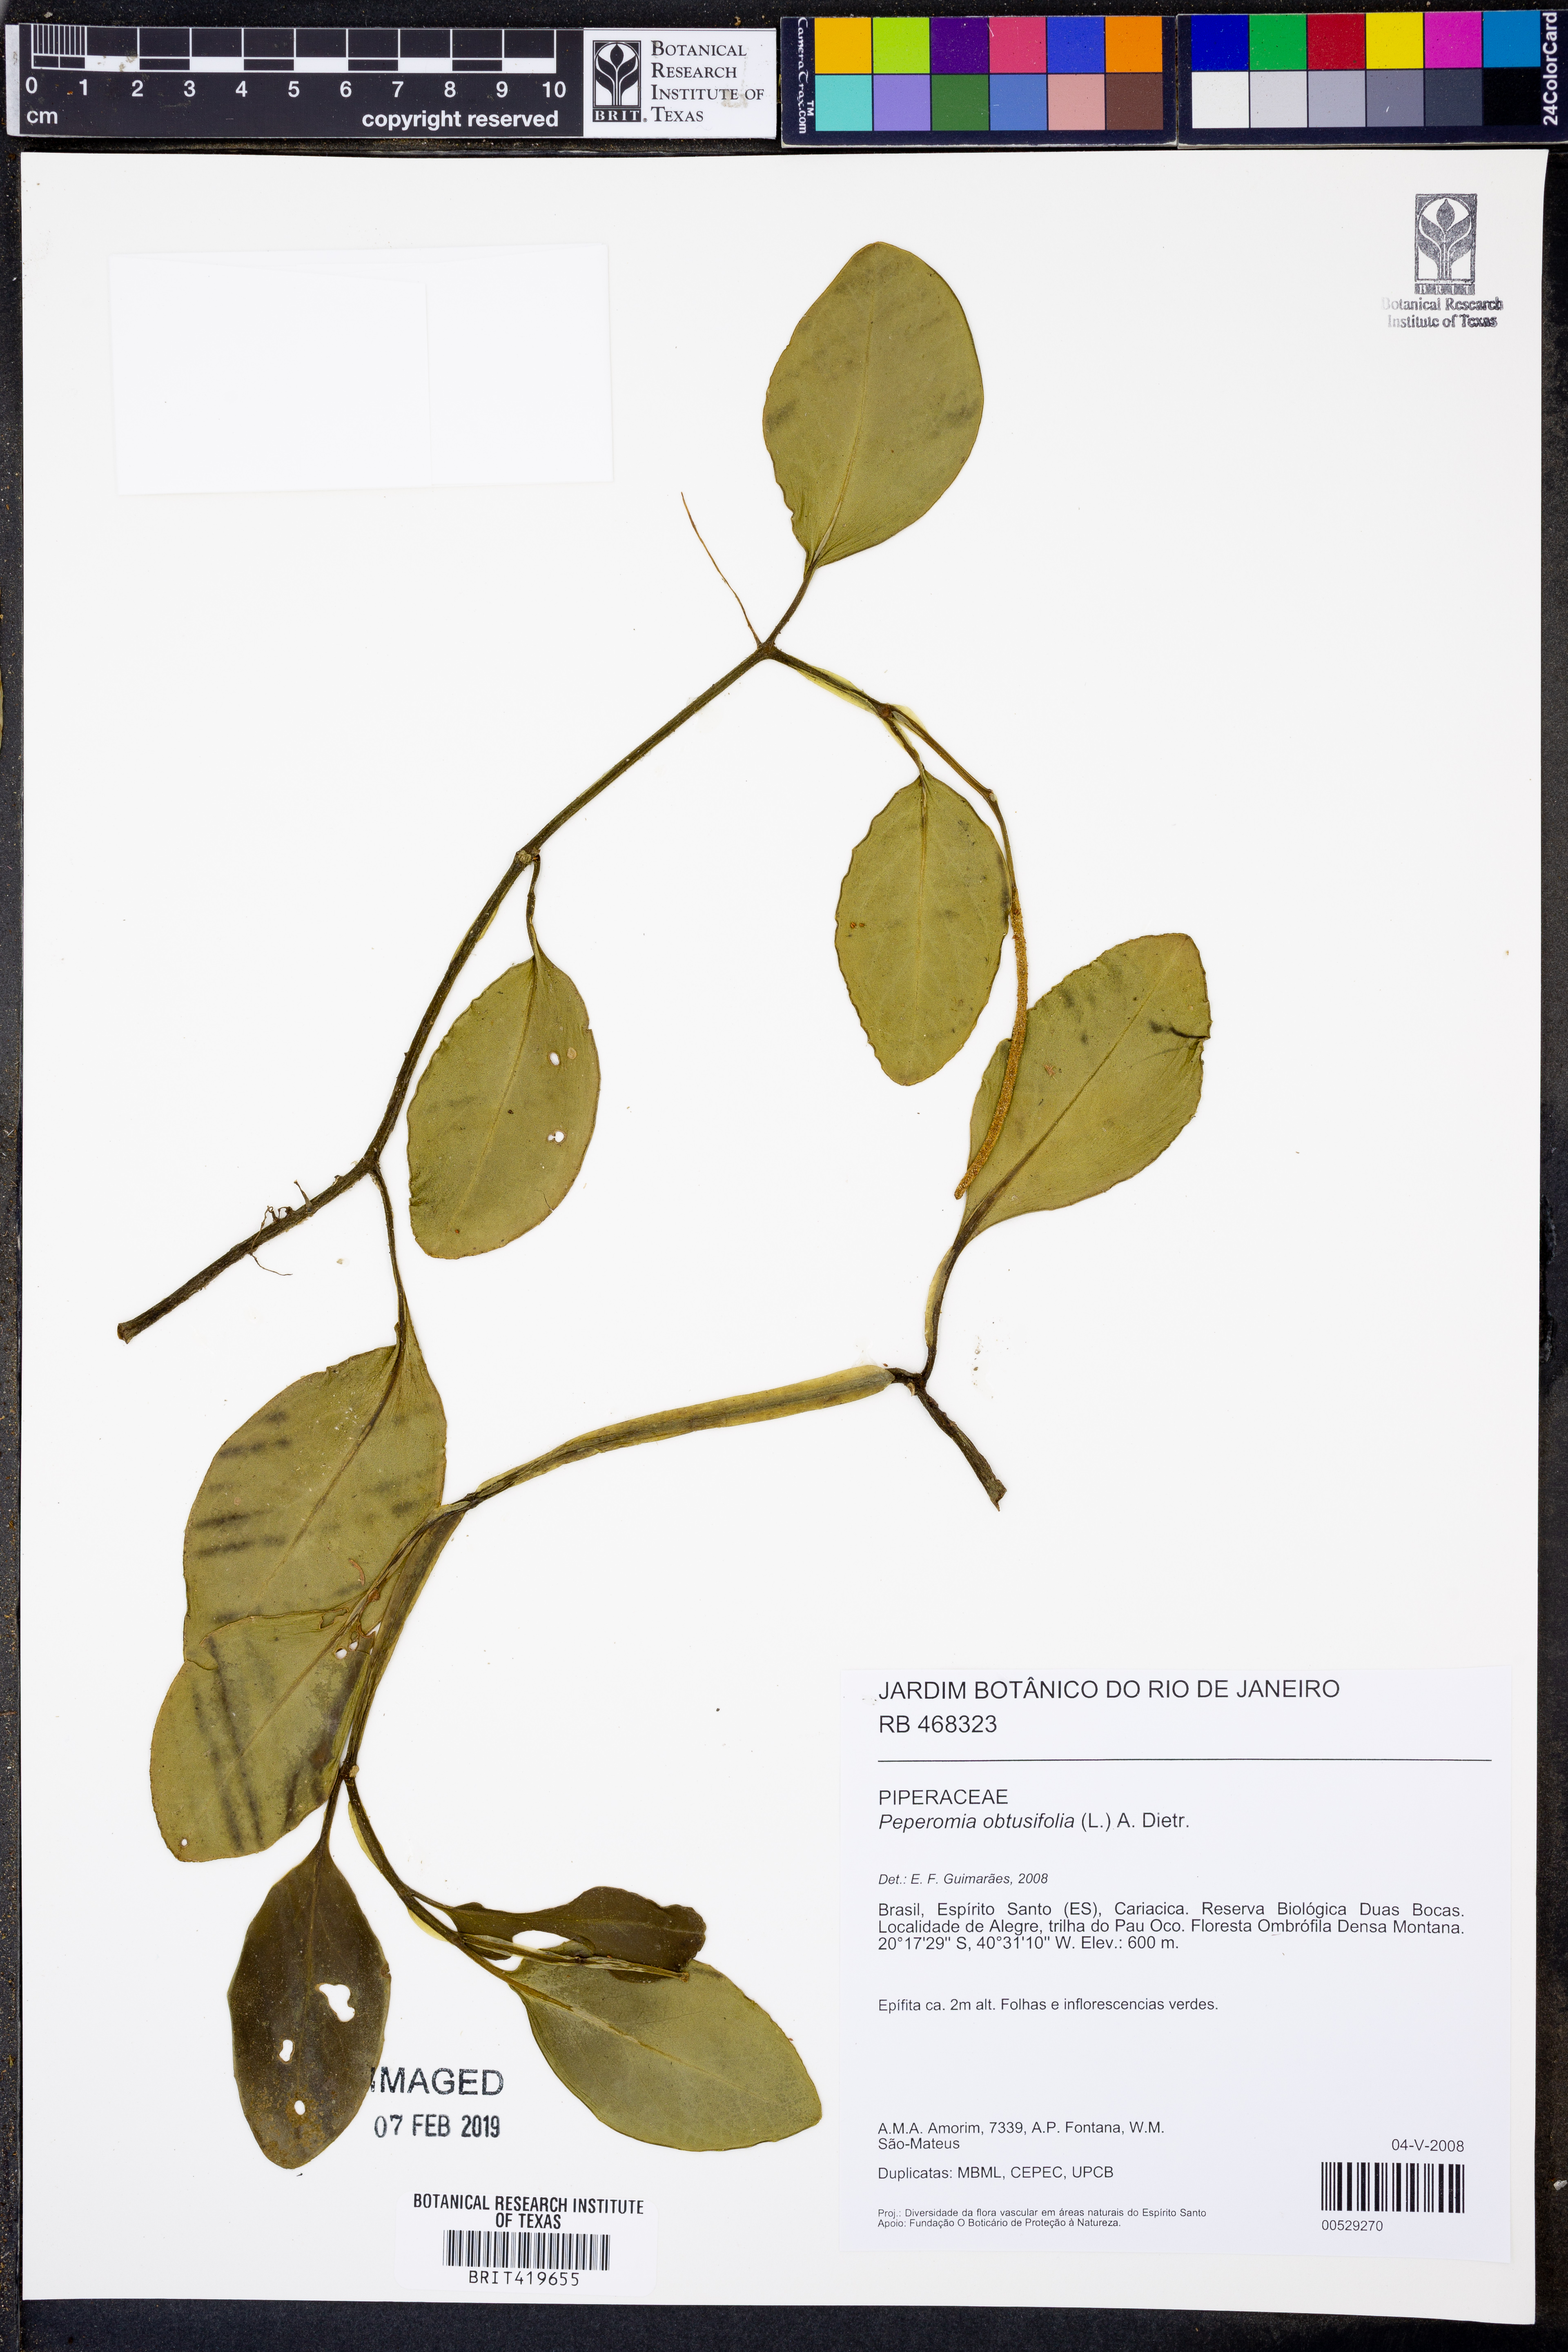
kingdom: Plantae
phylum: Tracheophyta
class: Magnoliopsida
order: Piperales
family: Piperaceae
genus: Peperomia
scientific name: Peperomia obtusifolia
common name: Baby rubberplant
